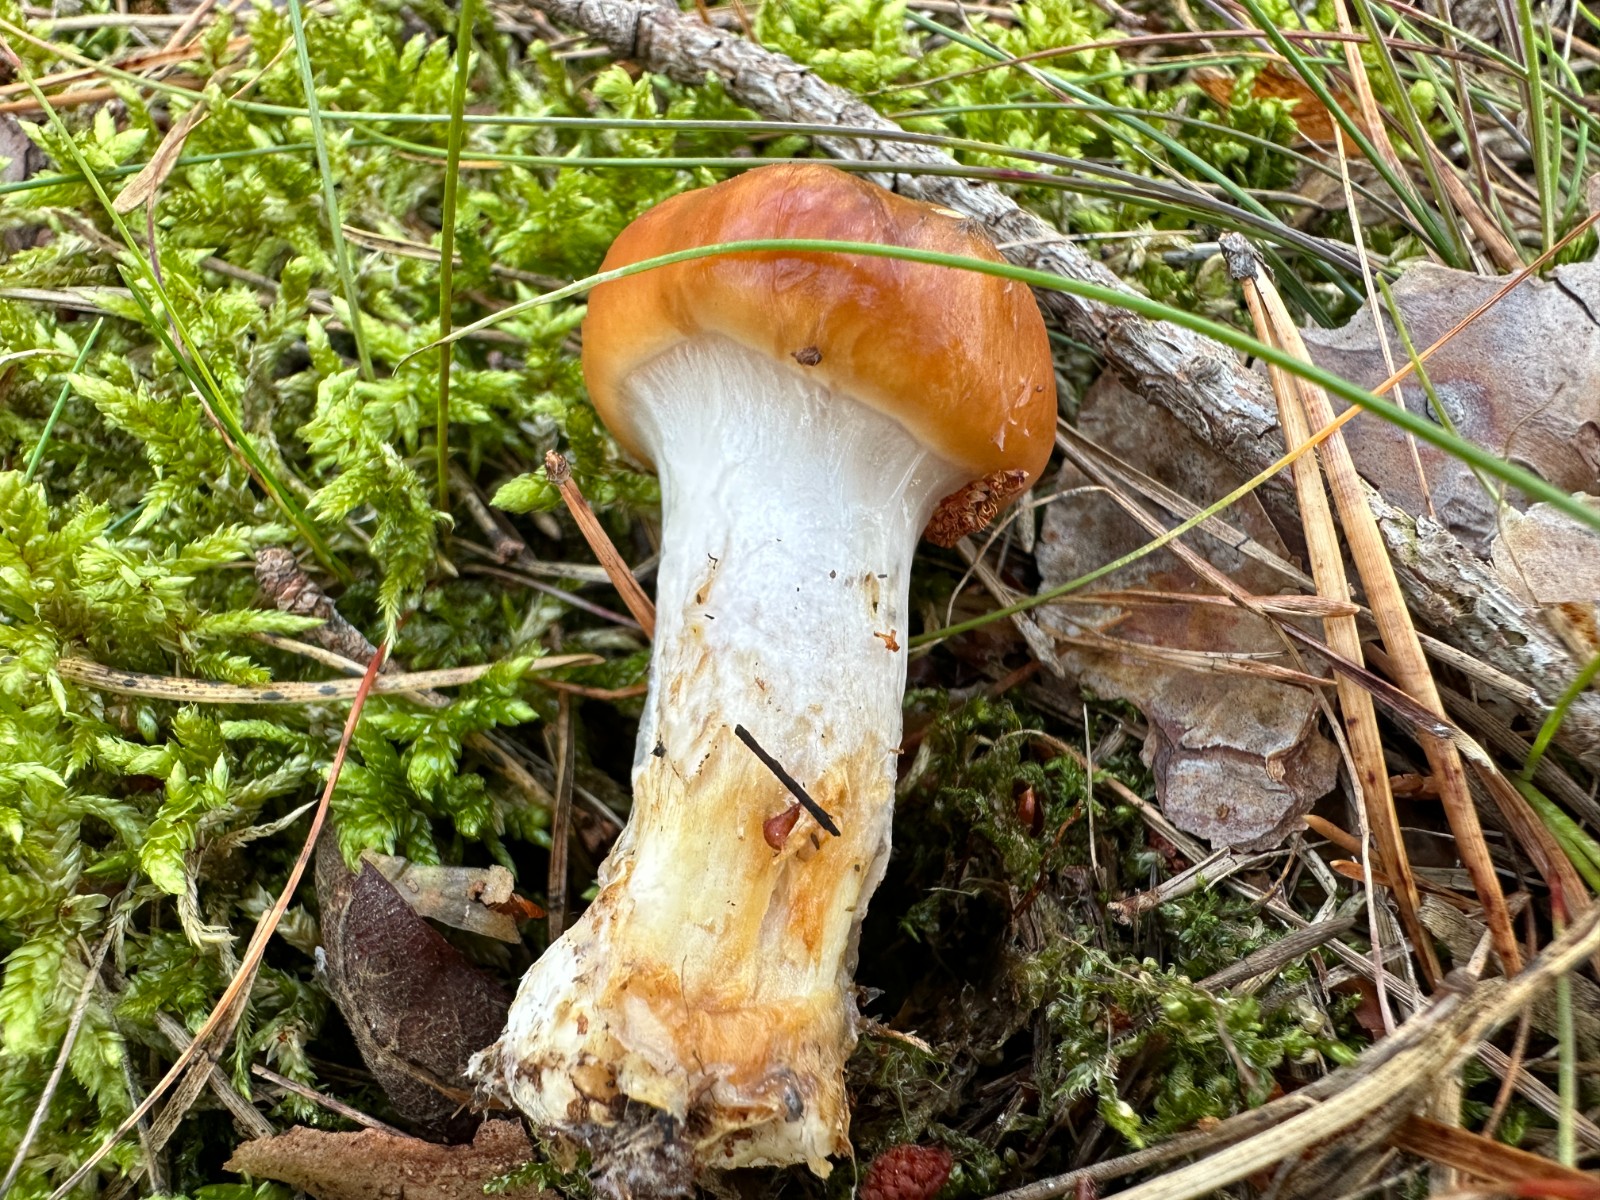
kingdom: Fungi
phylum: Basidiomycota
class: Agaricomycetes
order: Agaricales
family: Cortinariaceae
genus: Cortinarius
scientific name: Cortinarius mucosus
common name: kastaniebrun slørhat
